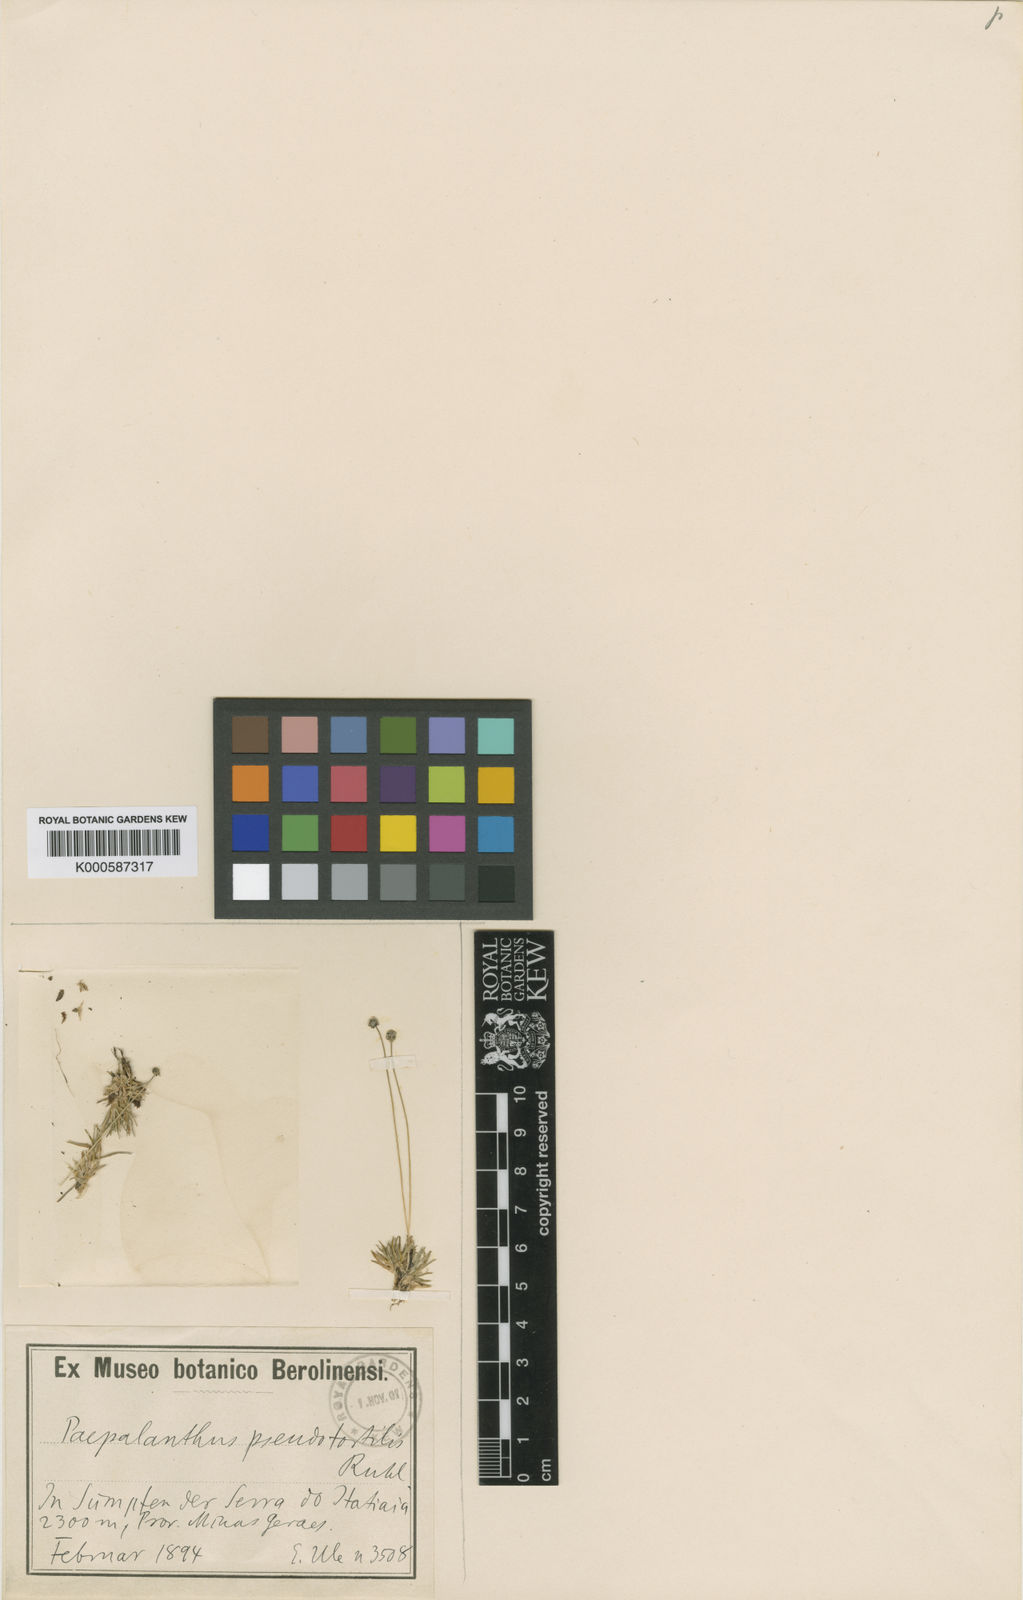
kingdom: Plantae
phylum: Tracheophyta
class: Liliopsida
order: Poales
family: Eriocaulaceae
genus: Paepalanthus
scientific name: Paepalanthus pseudotortilis
